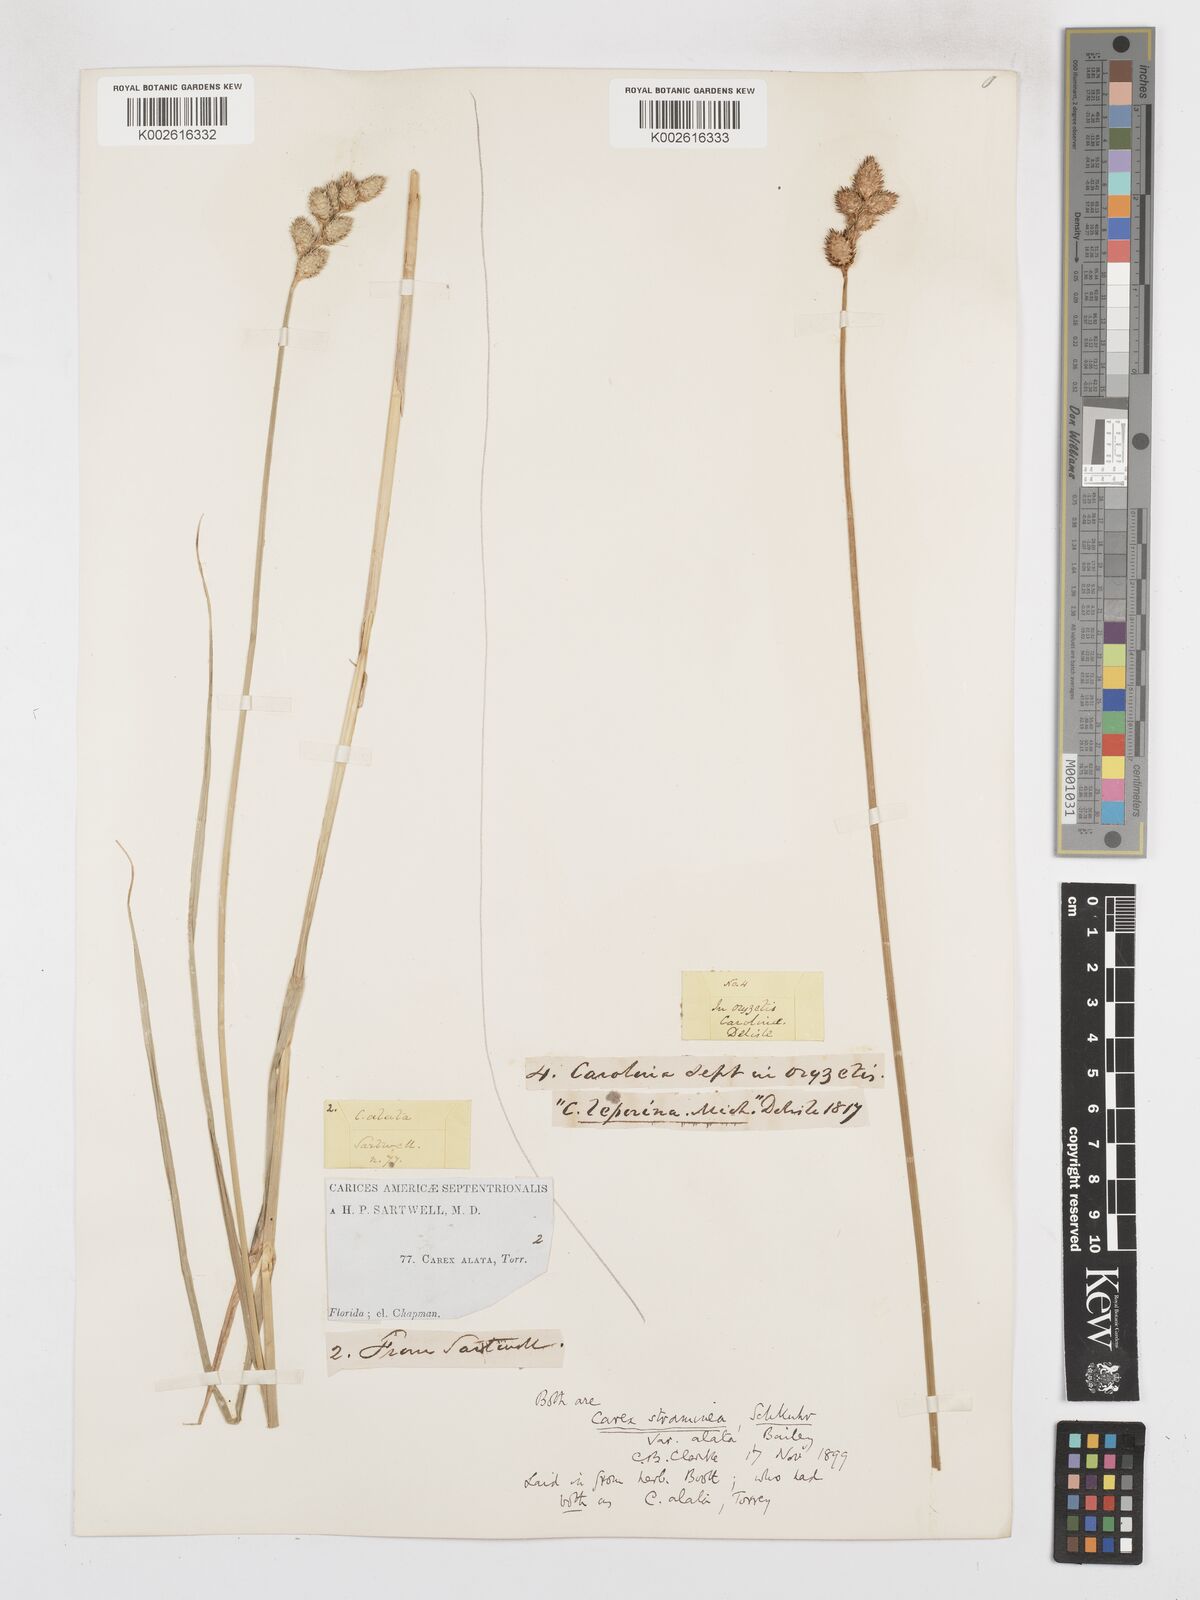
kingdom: Plantae
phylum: Tracheophyta
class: Liliopsida
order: Poales
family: Cyperaceae
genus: Carex
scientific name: Carex alata
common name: Broad-winged sedge
